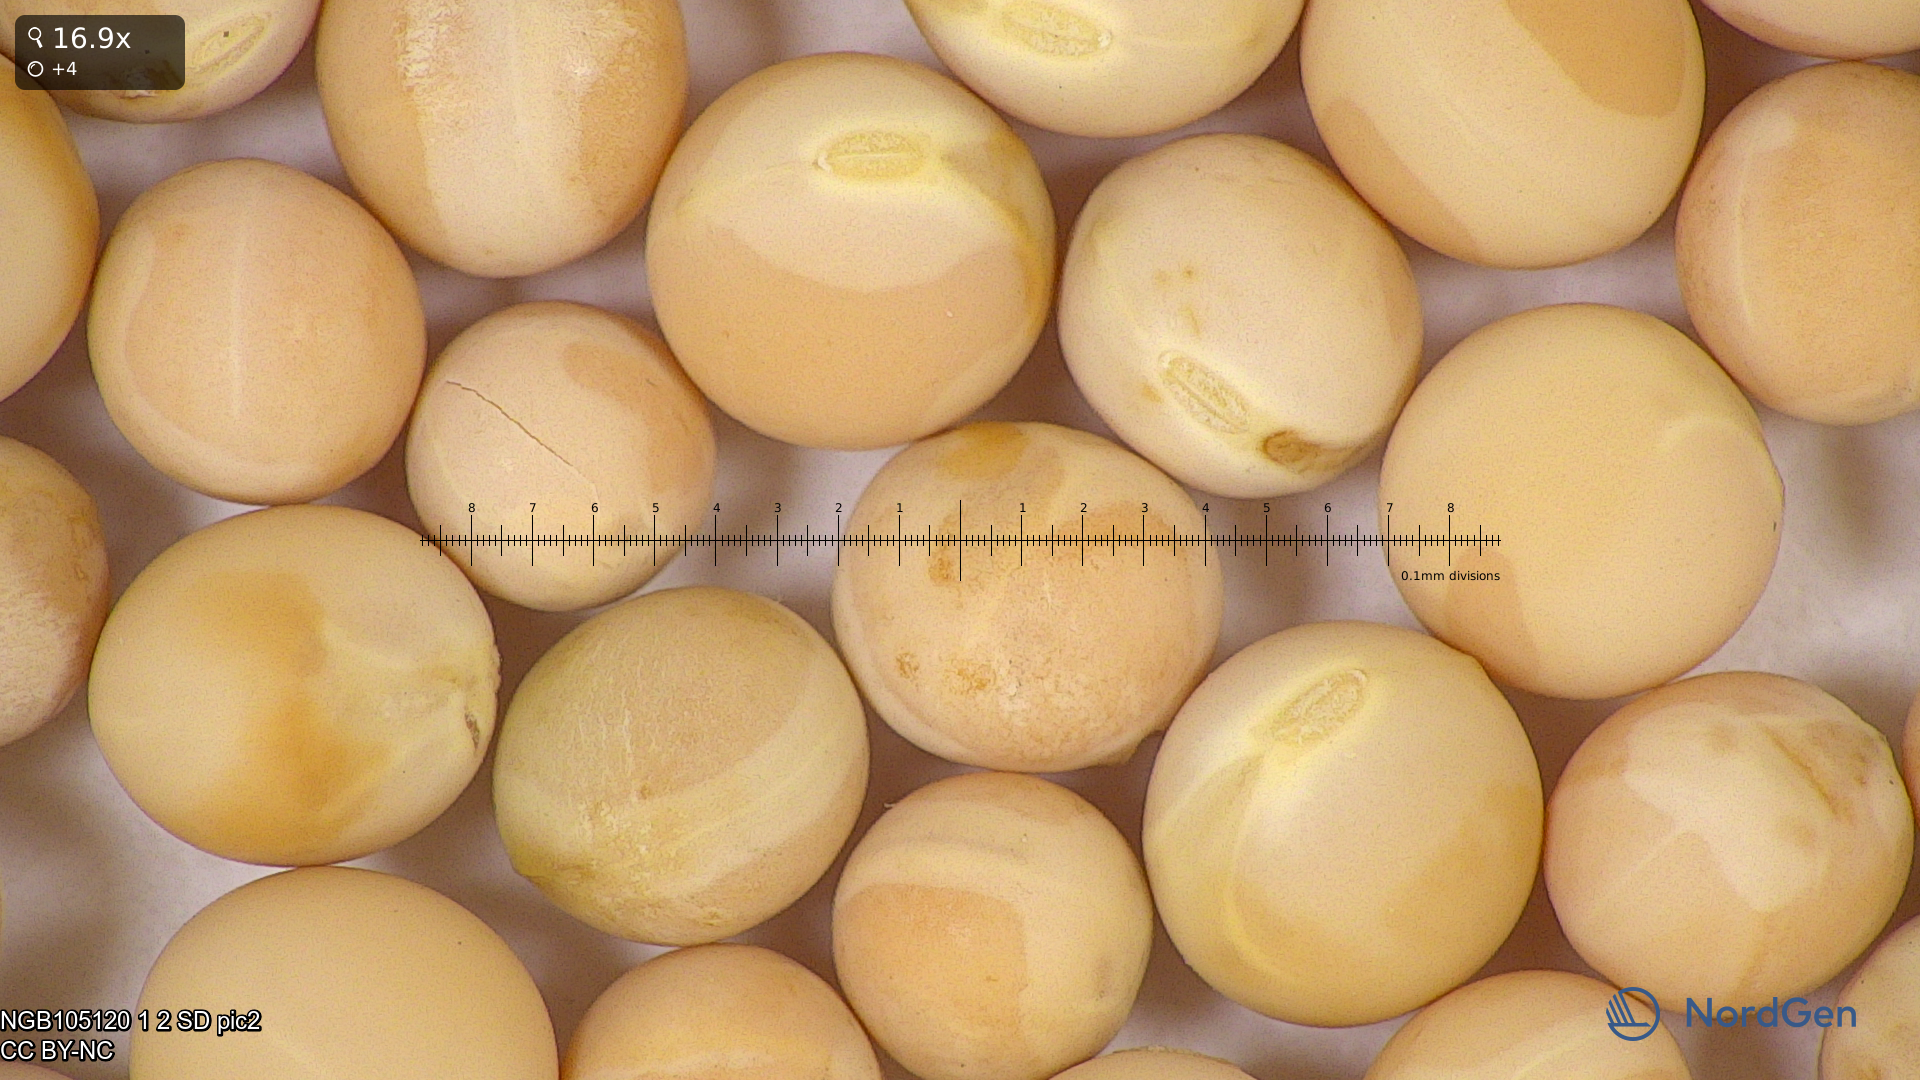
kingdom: Plantae
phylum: Tracheophyta
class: Magnoliopsida
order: Fabales
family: Fabaceae
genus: Lathyrus
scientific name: Lathyrus oleraceus
